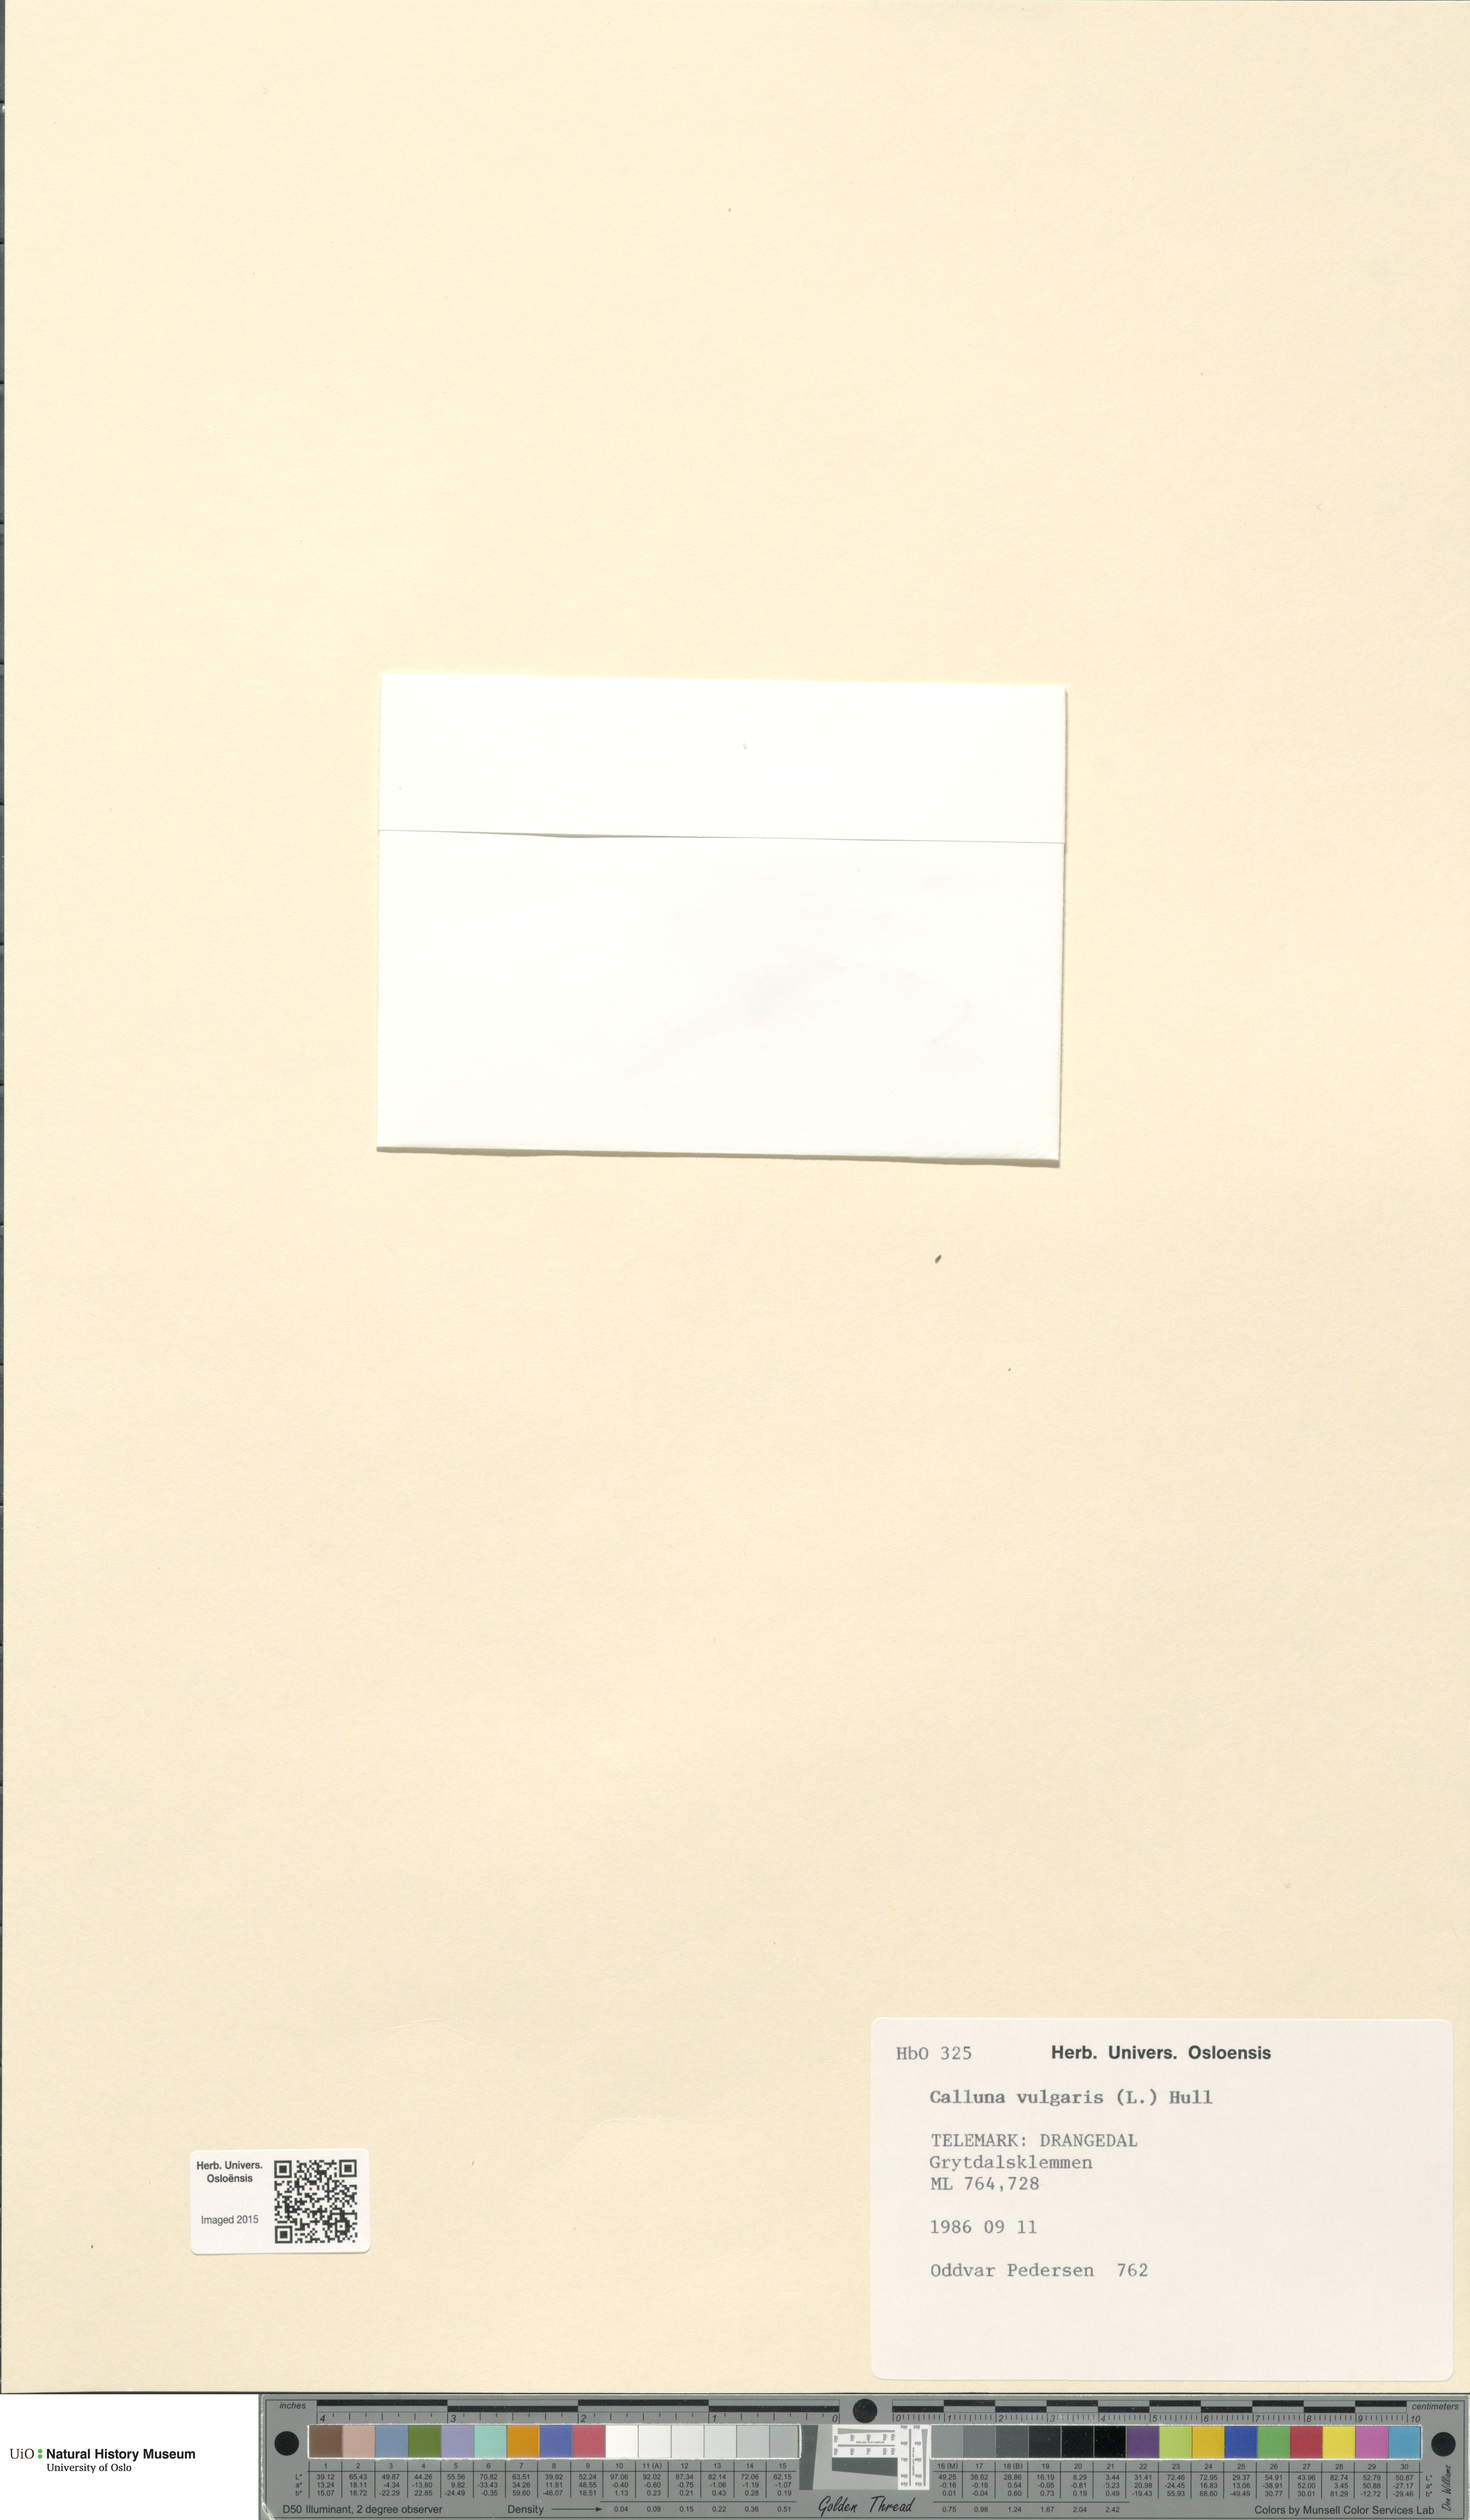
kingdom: Plantae
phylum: Tracheophyta
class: Magnoliopsida
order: Ericales
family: Ericaceae
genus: Calluna
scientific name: Calluna vulgaris
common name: Heather
